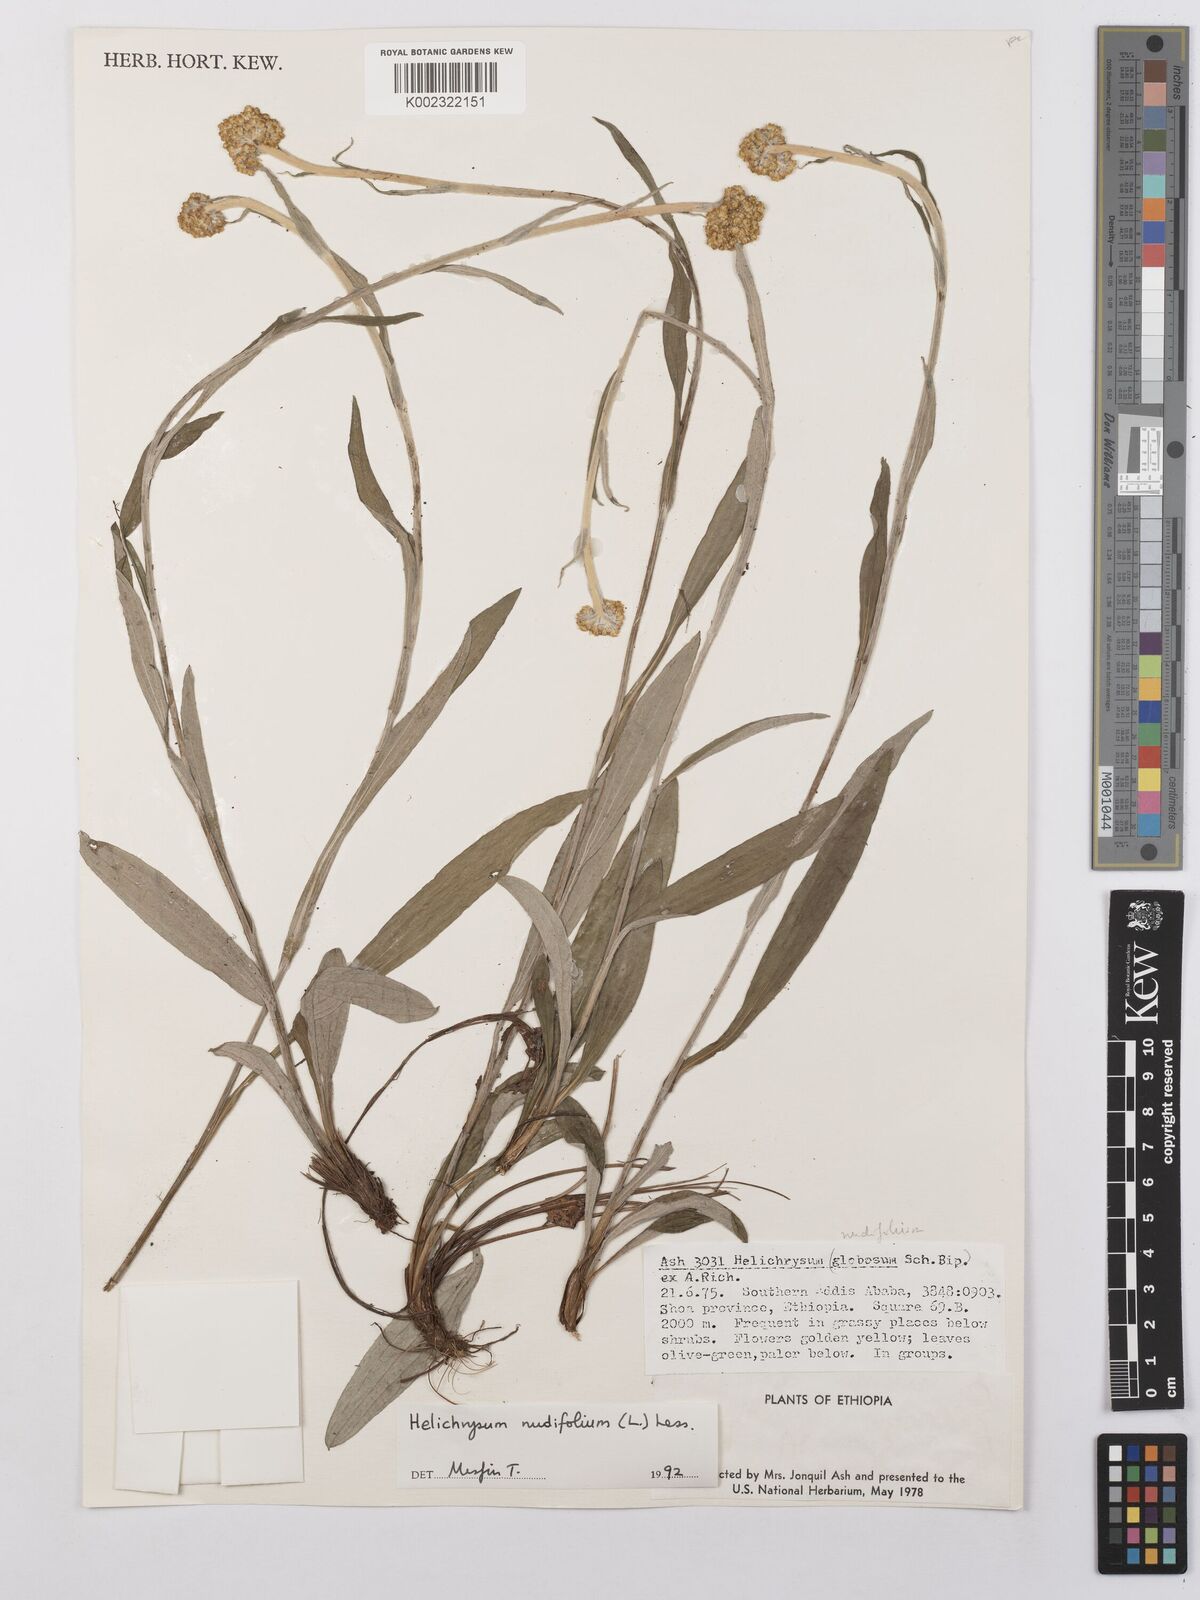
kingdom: Plantae
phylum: Tracheophyta
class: Magnoliopsida
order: Asterales
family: Asteraceae
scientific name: Asteraceae
